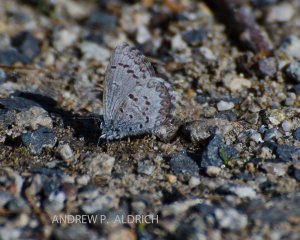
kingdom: Animalia
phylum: Arthropoda
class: Insecta
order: Lepidoptera
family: Lycaenidae
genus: Celastrina
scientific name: Celastrina lucia
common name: Northern Spring Azure
